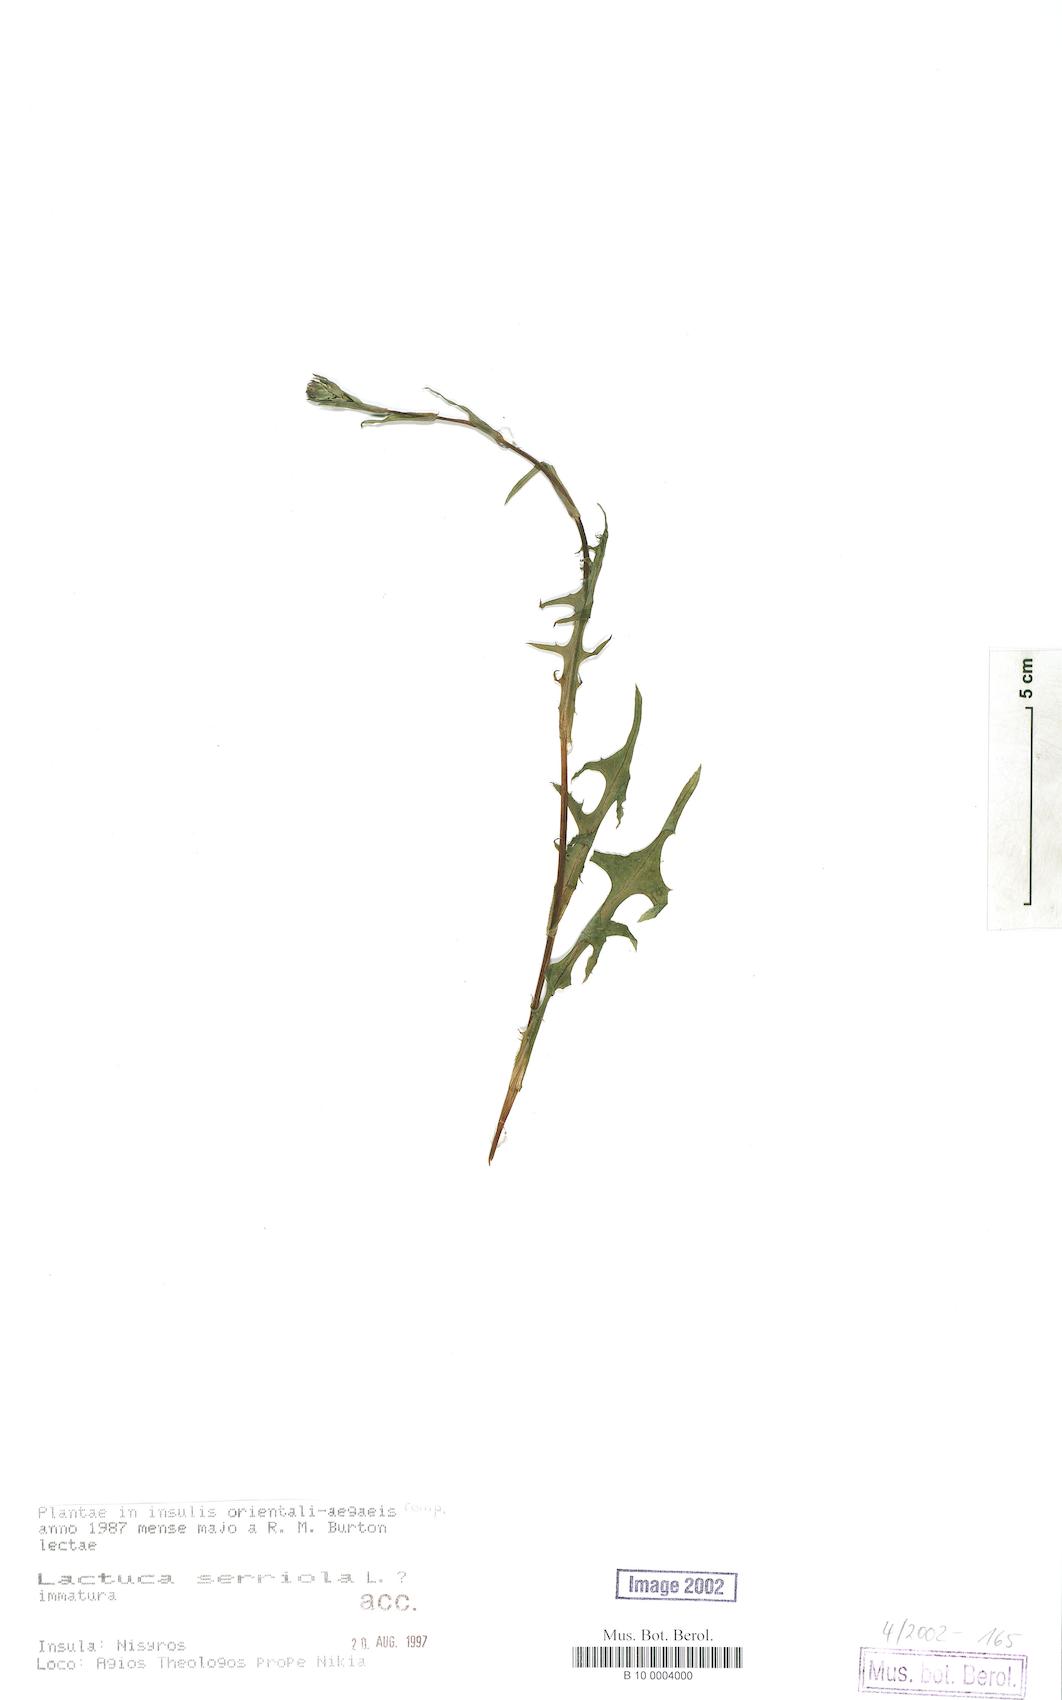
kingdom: Plantae
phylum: Tracheophyta
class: Magnoliopsida
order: Asterales
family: Asteraceae
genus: Lactuca
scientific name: Lactuca serriola
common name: Prickly lettuce
